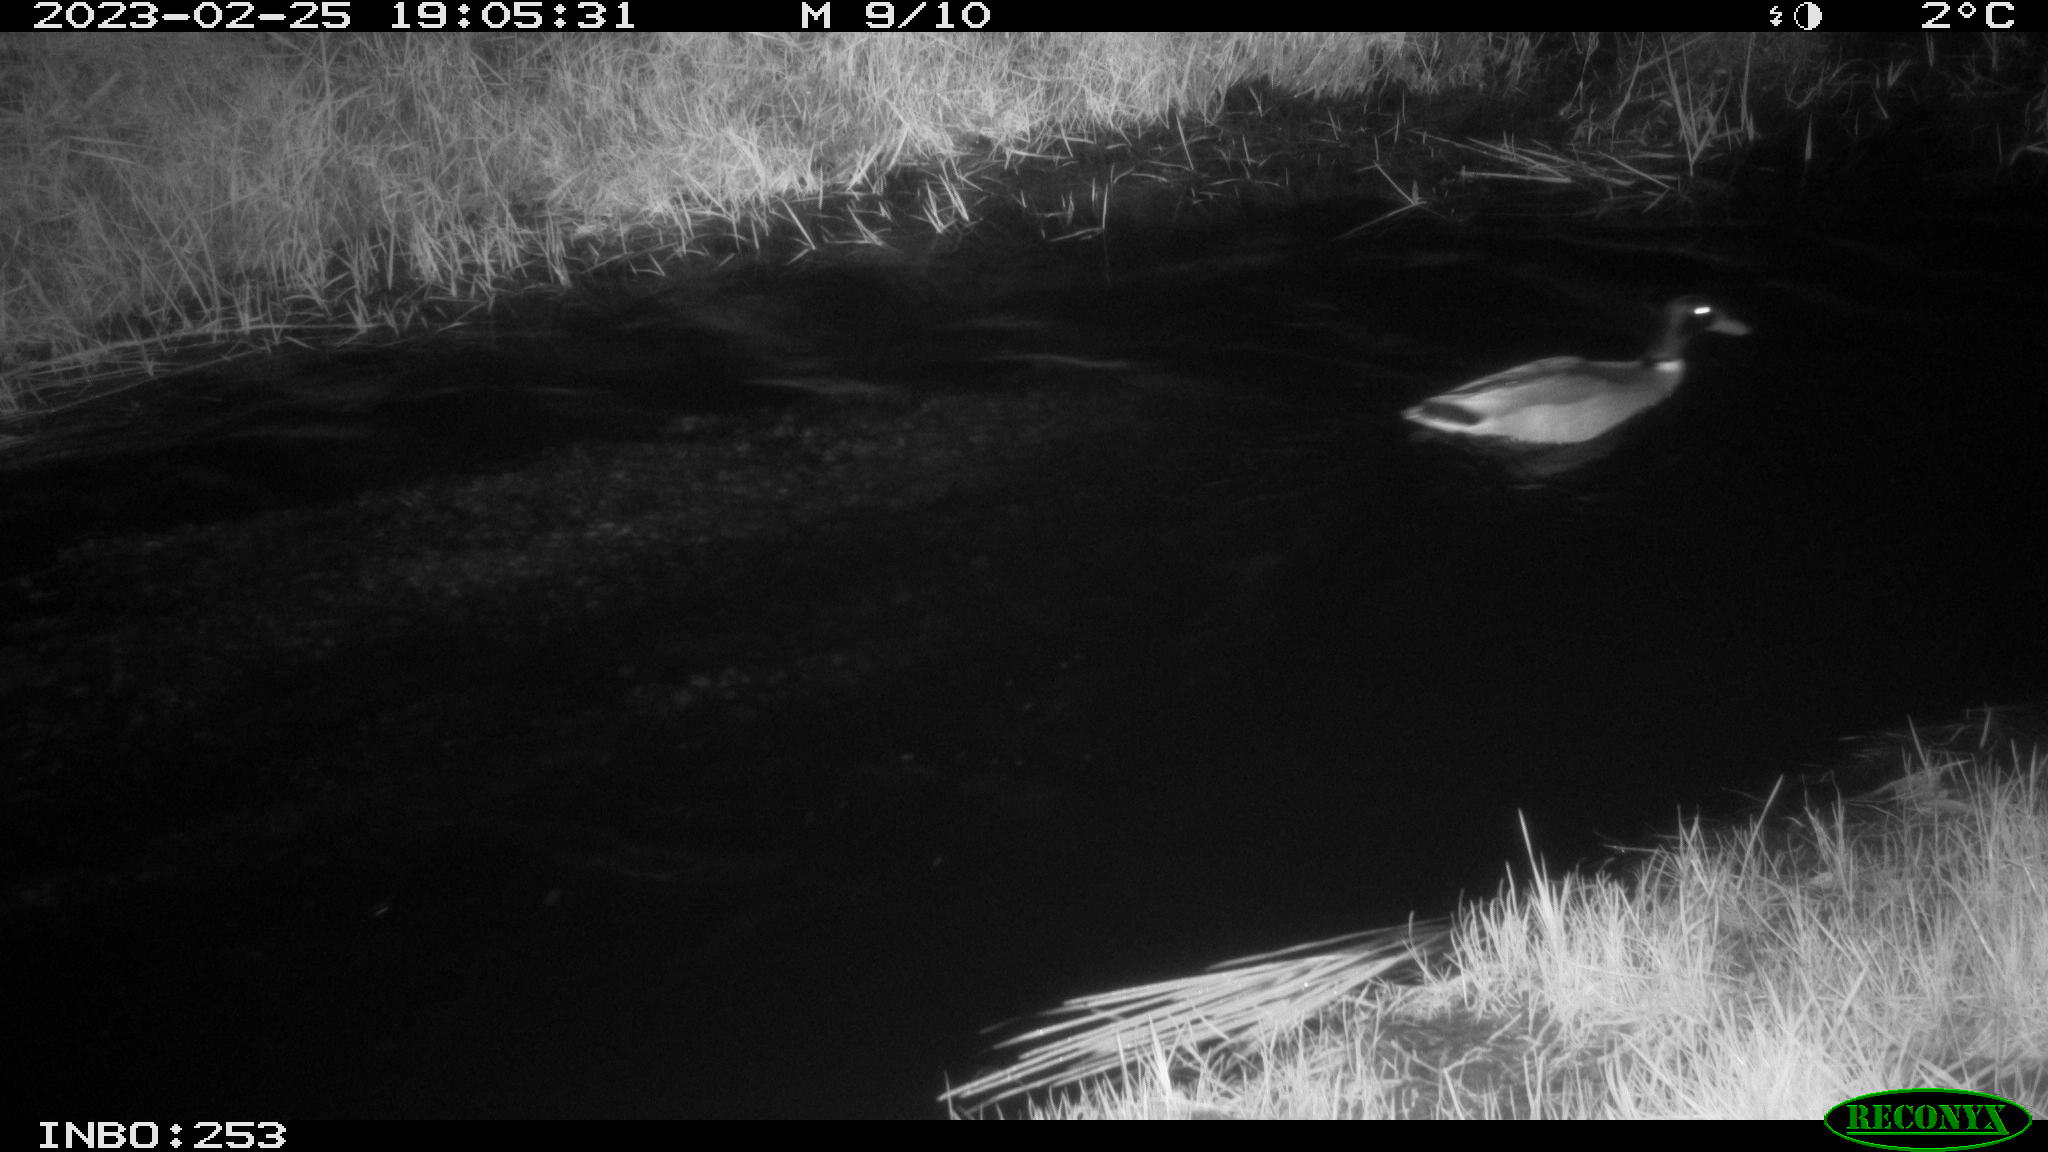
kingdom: Animalia
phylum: Chordata
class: Aves
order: Anseriformes
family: Anatidae
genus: Anas
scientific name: Anas
